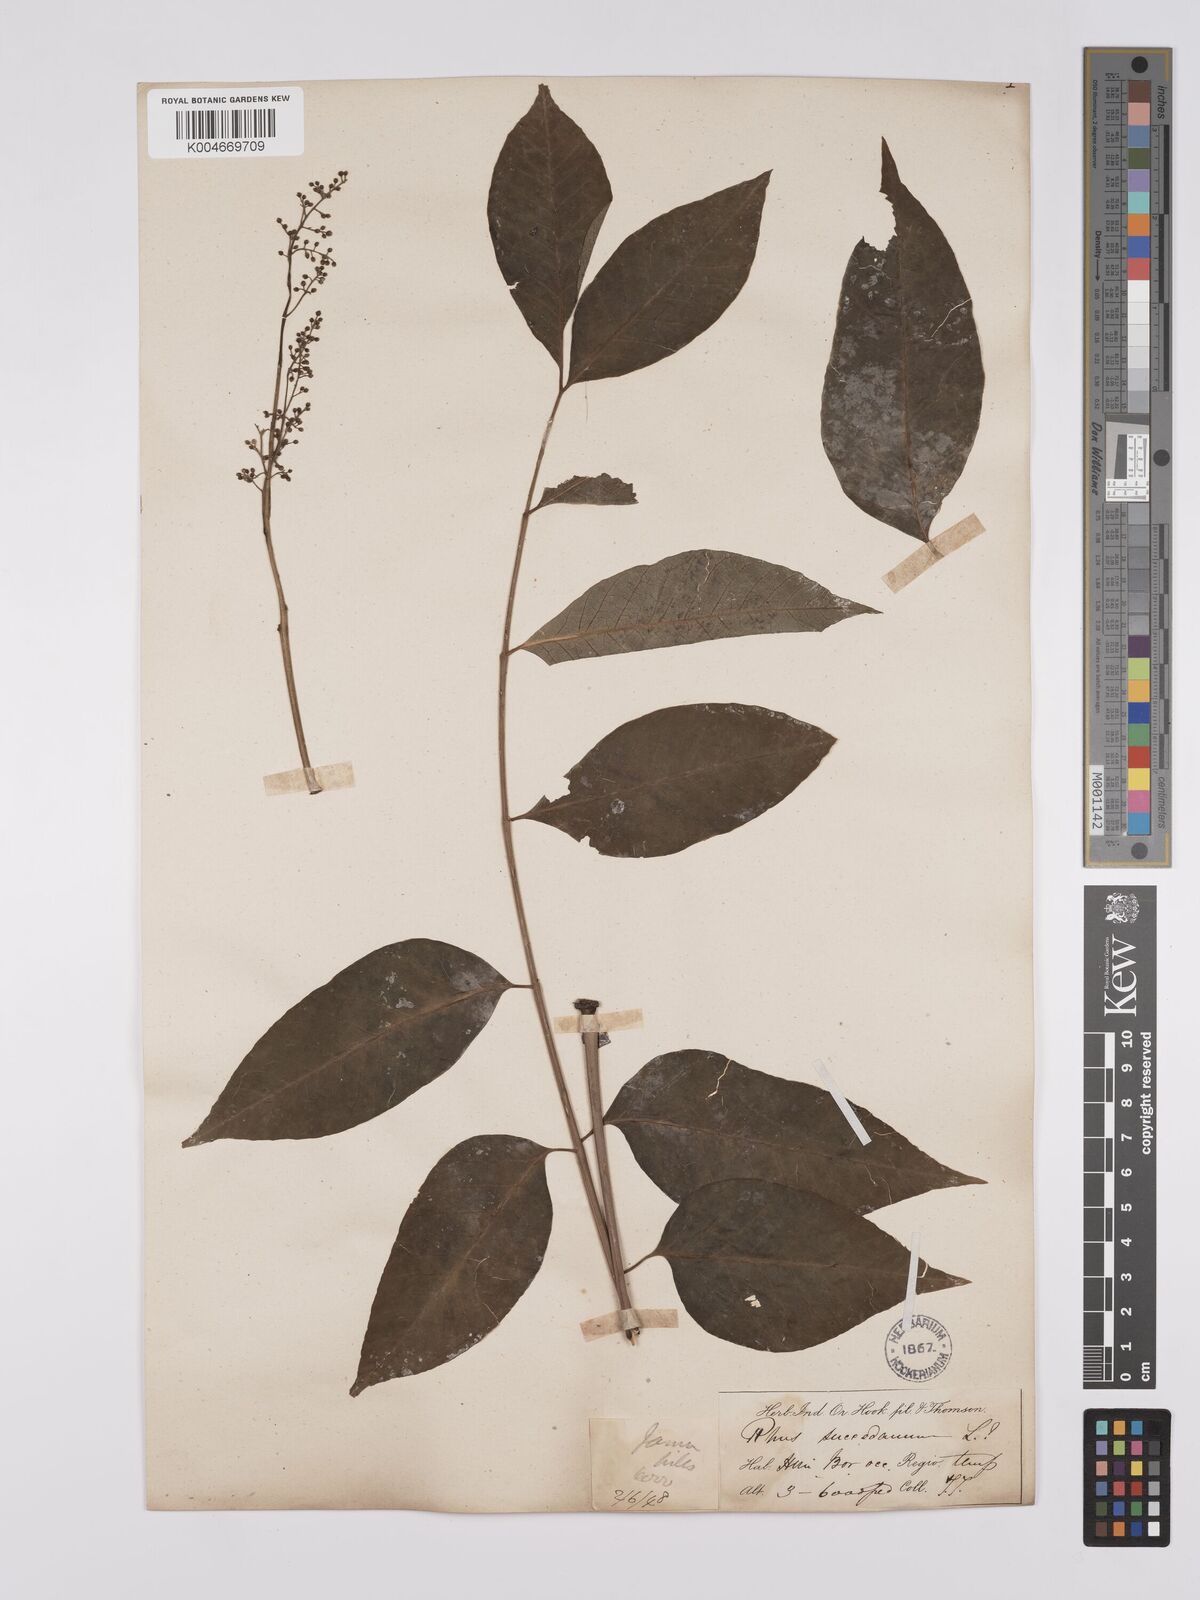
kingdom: Plantae
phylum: Tracheophyta
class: Magnoliopsida
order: Sapindales
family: Anacardiaceae
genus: Toxicodendron
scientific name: Toxicodendron succedaneum
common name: Wax tree
